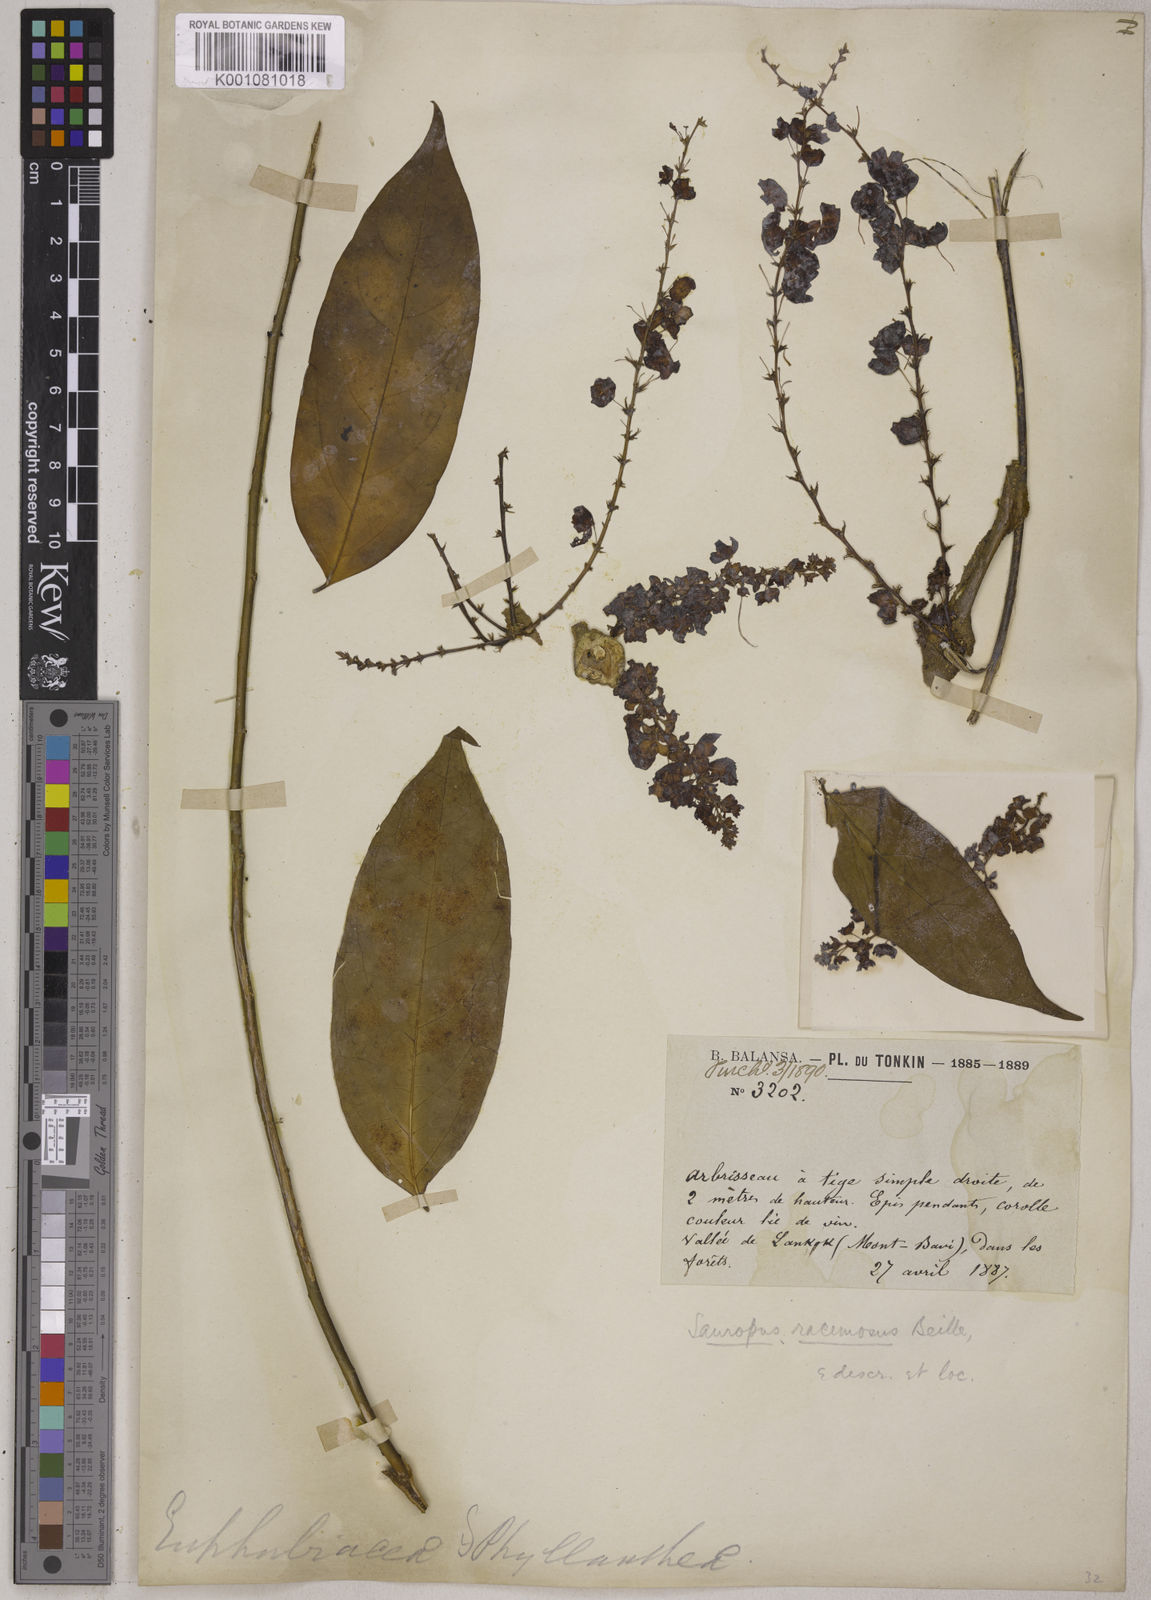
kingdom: Plantae
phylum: Tracheophyta
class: Magnoliopsida
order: Malpighiales
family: Phyllanthaceae
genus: Breynia
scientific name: Breynia beillei
